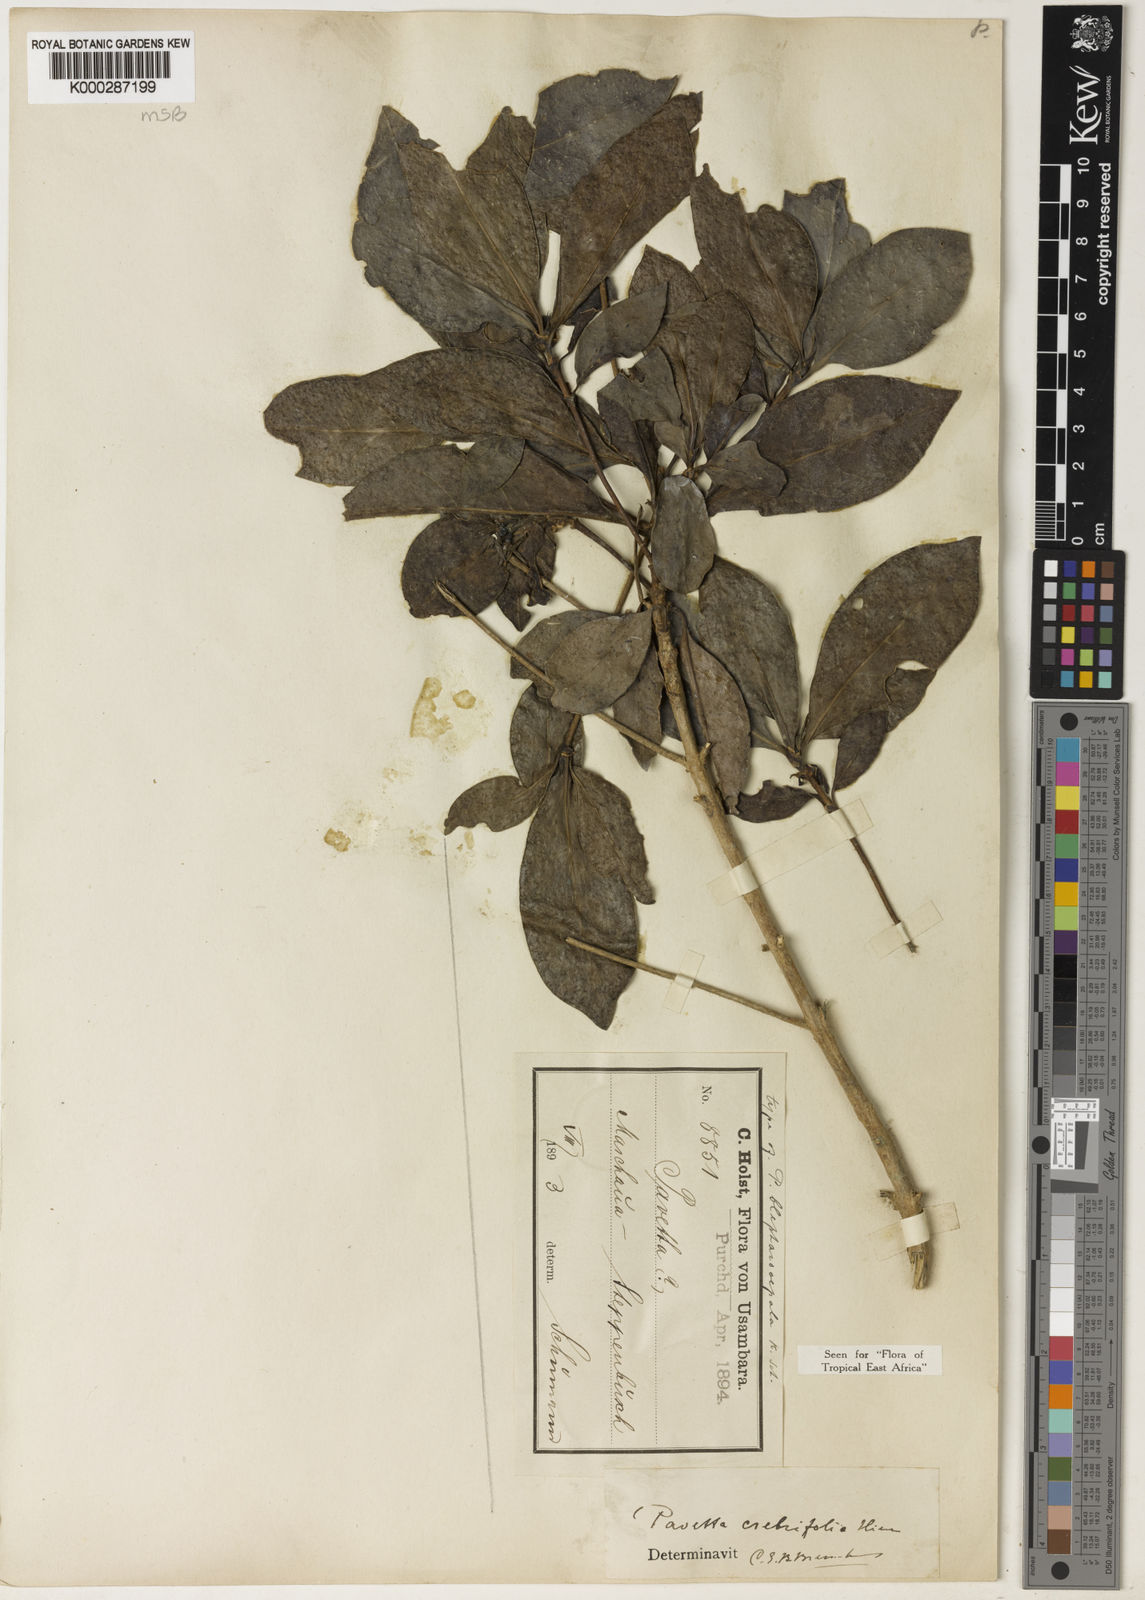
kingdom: Plantae
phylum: Tracheophyta
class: Magnoliopsida
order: Gentianales
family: Rubiaceae
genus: Pavetta
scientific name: Pavetta crebrifolia
